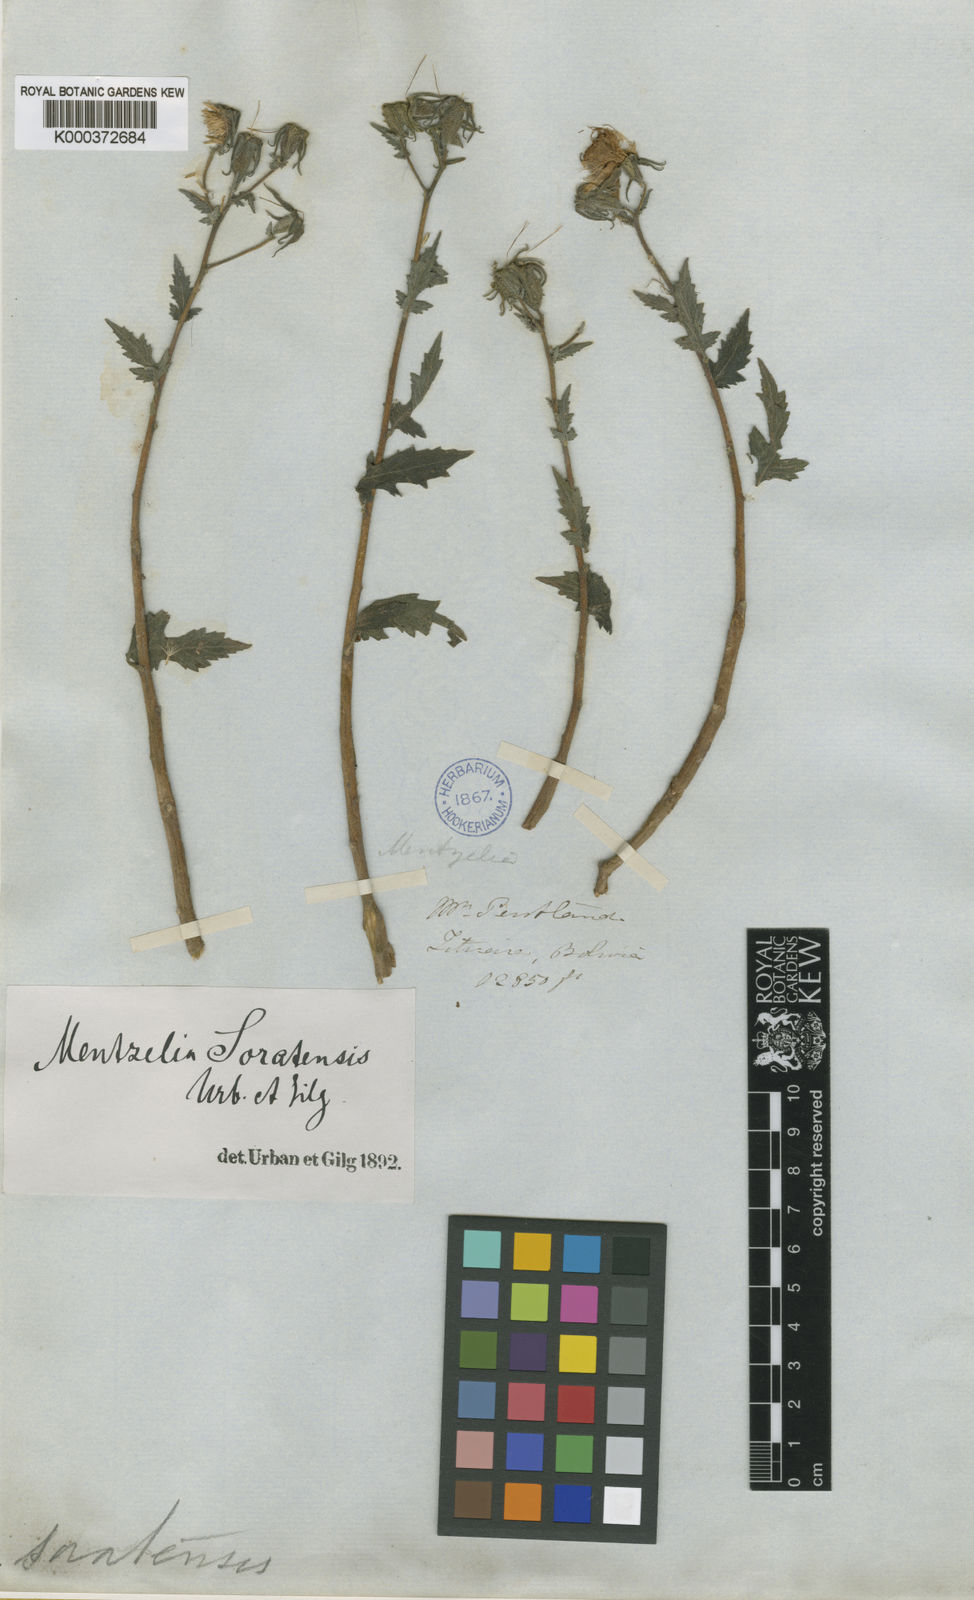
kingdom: Plantae
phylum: Tracheophyta
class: Magnoliopsida
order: Cornales
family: Loasaceae
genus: Mentzelia
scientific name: Mentzelia scabra
